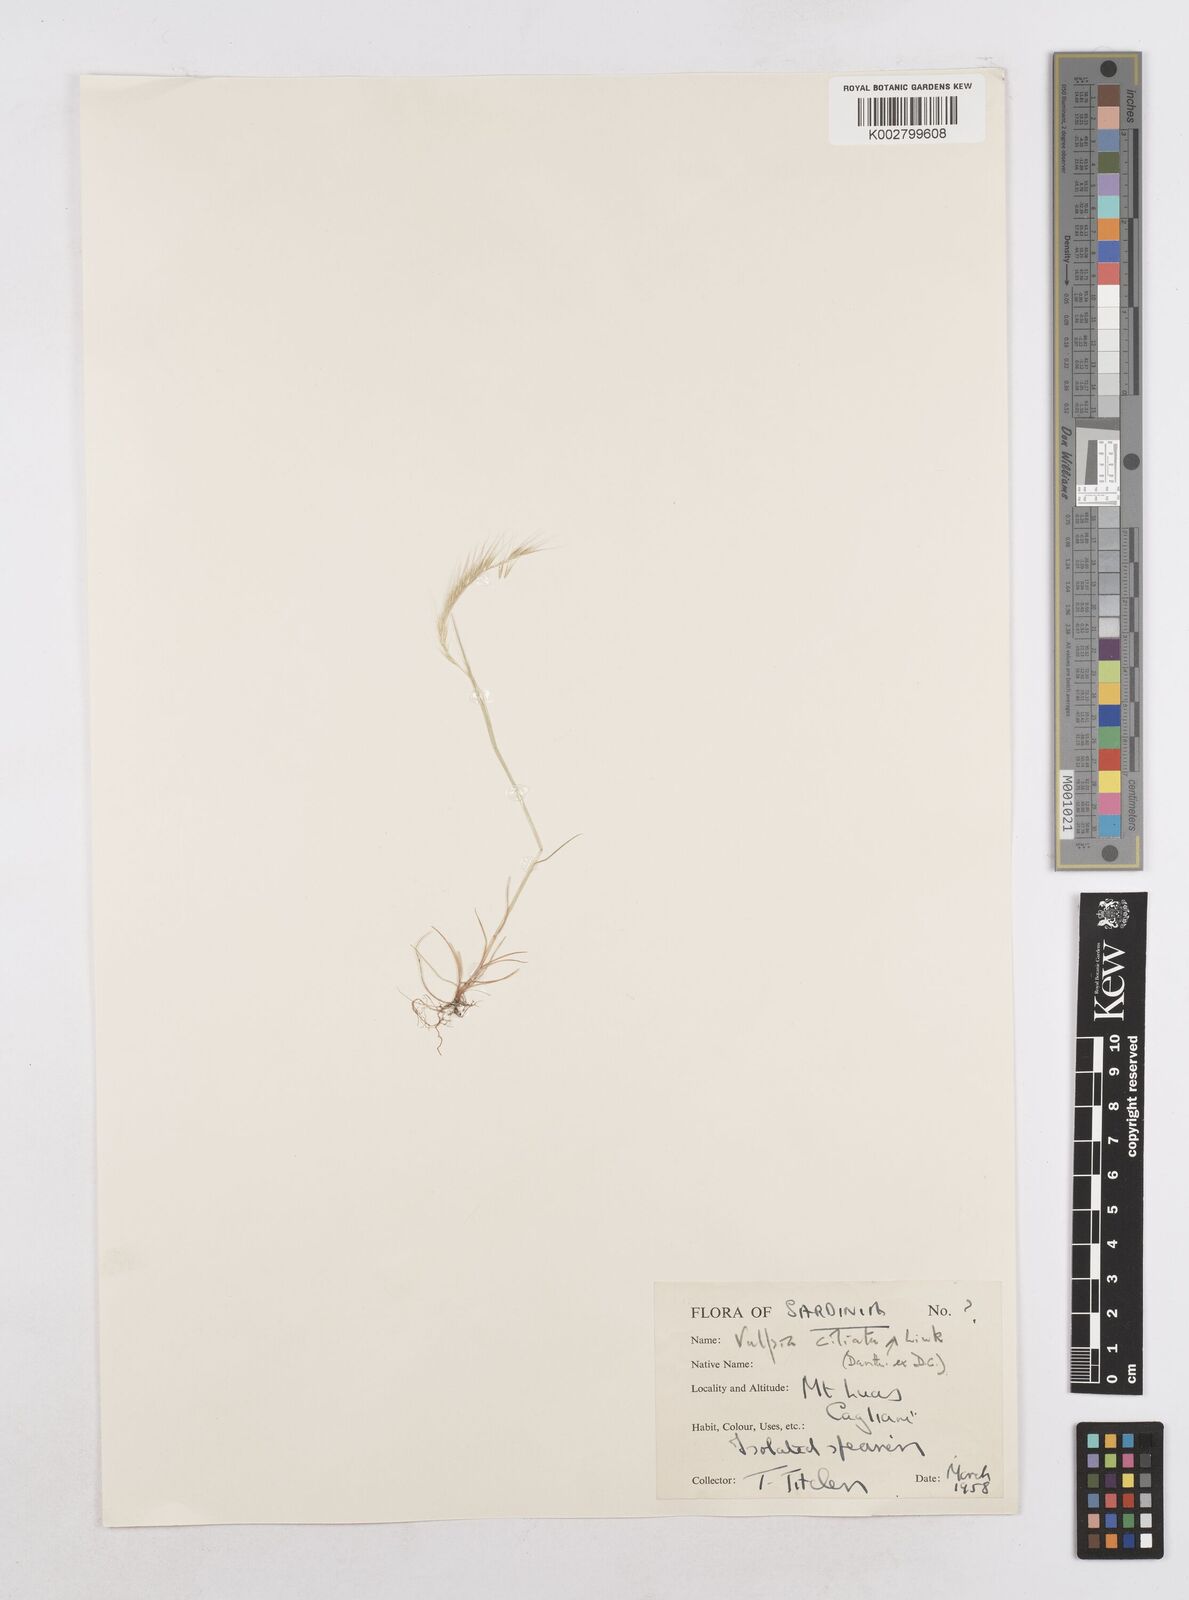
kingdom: Plantae
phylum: Tracheophyta
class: Liliopsida
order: Poales
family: Poaceae
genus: Festuca
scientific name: Festuca
